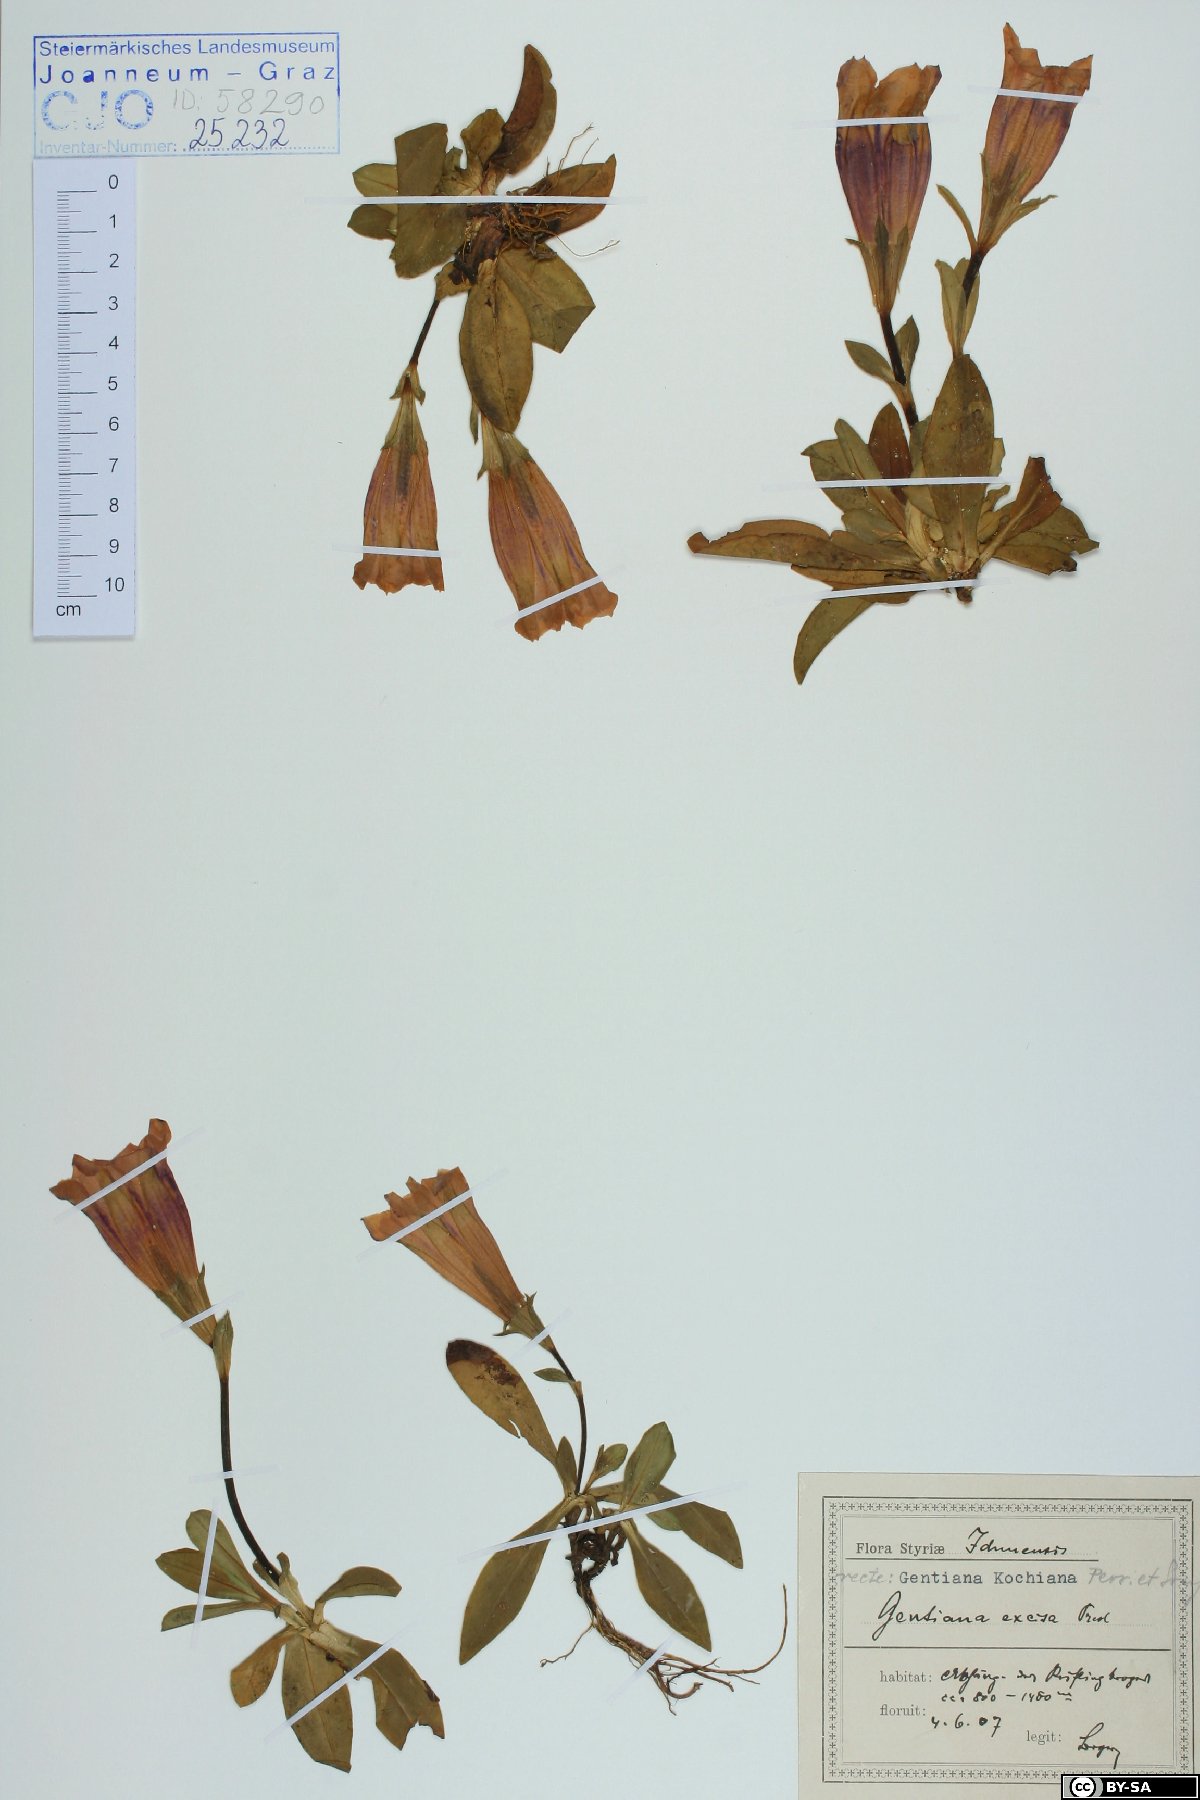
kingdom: Plantae
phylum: Tracheophyta
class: Magnoliopsida
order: Gentianales
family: Gentianaceae
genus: Gentiana
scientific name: Gentiana acaulis
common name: Trumpet gentian
